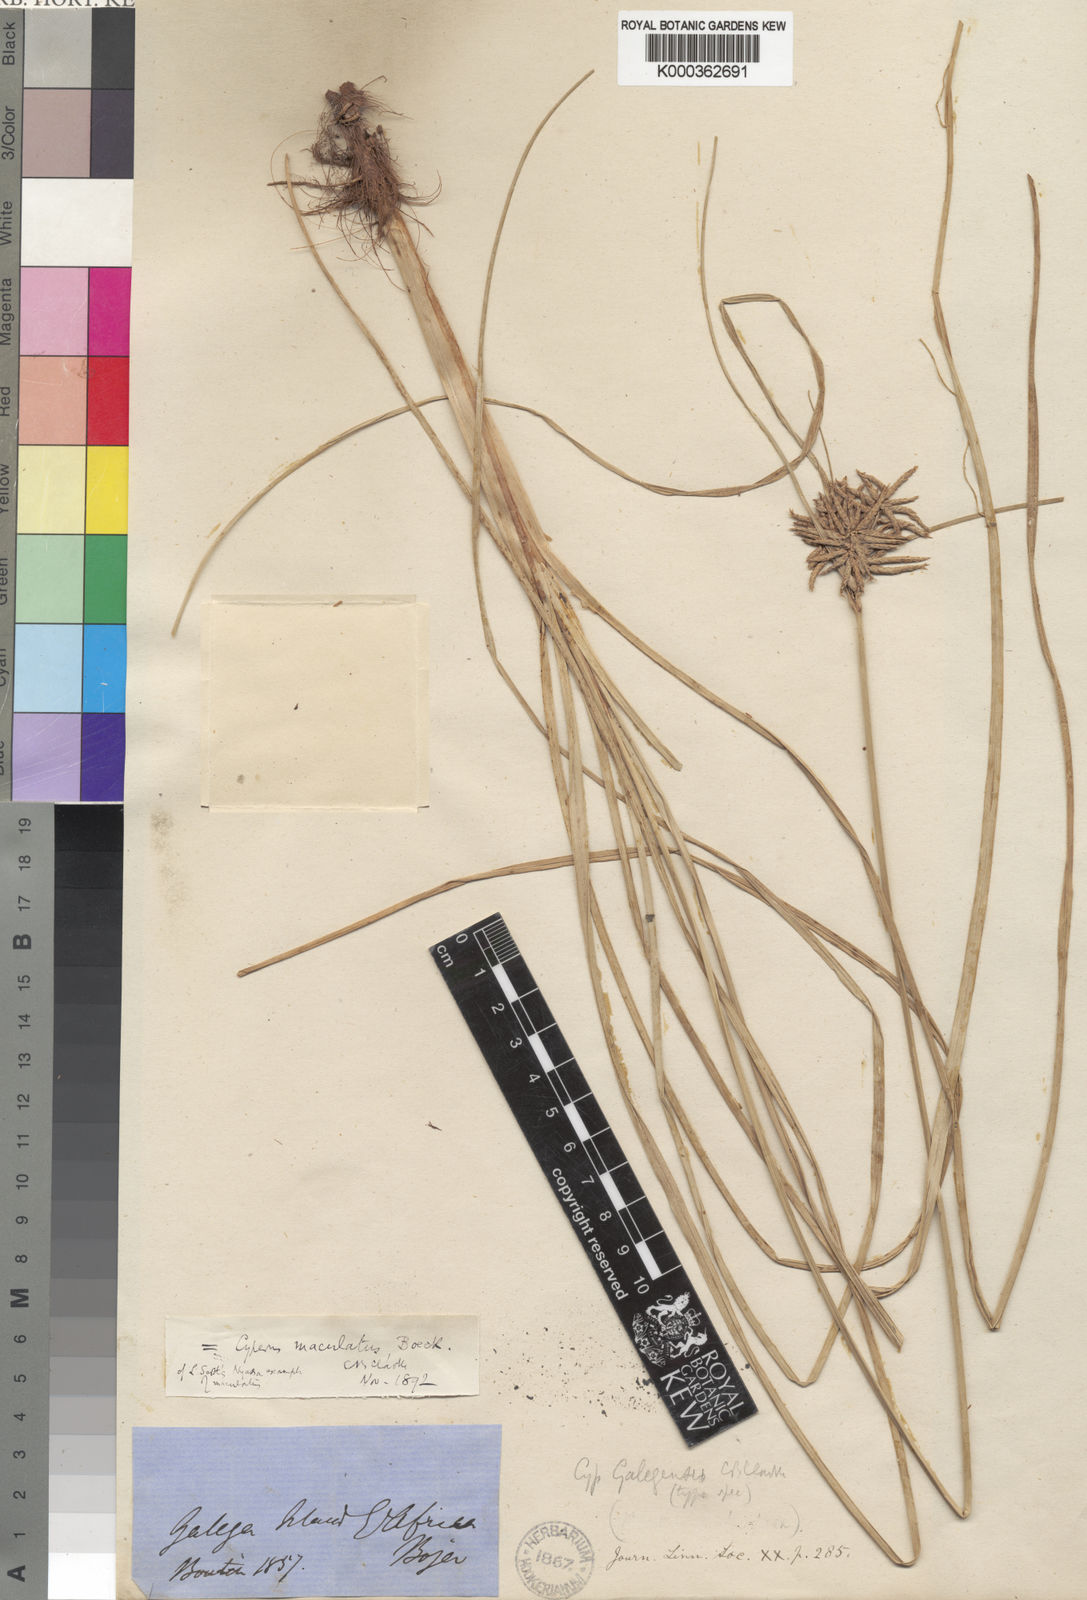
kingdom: Plantae
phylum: Tracheophyta
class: Liliopsida
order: Poales
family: Cyperaceae
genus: Cyperus
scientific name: Cyperus maculatus
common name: Maculated sedge
